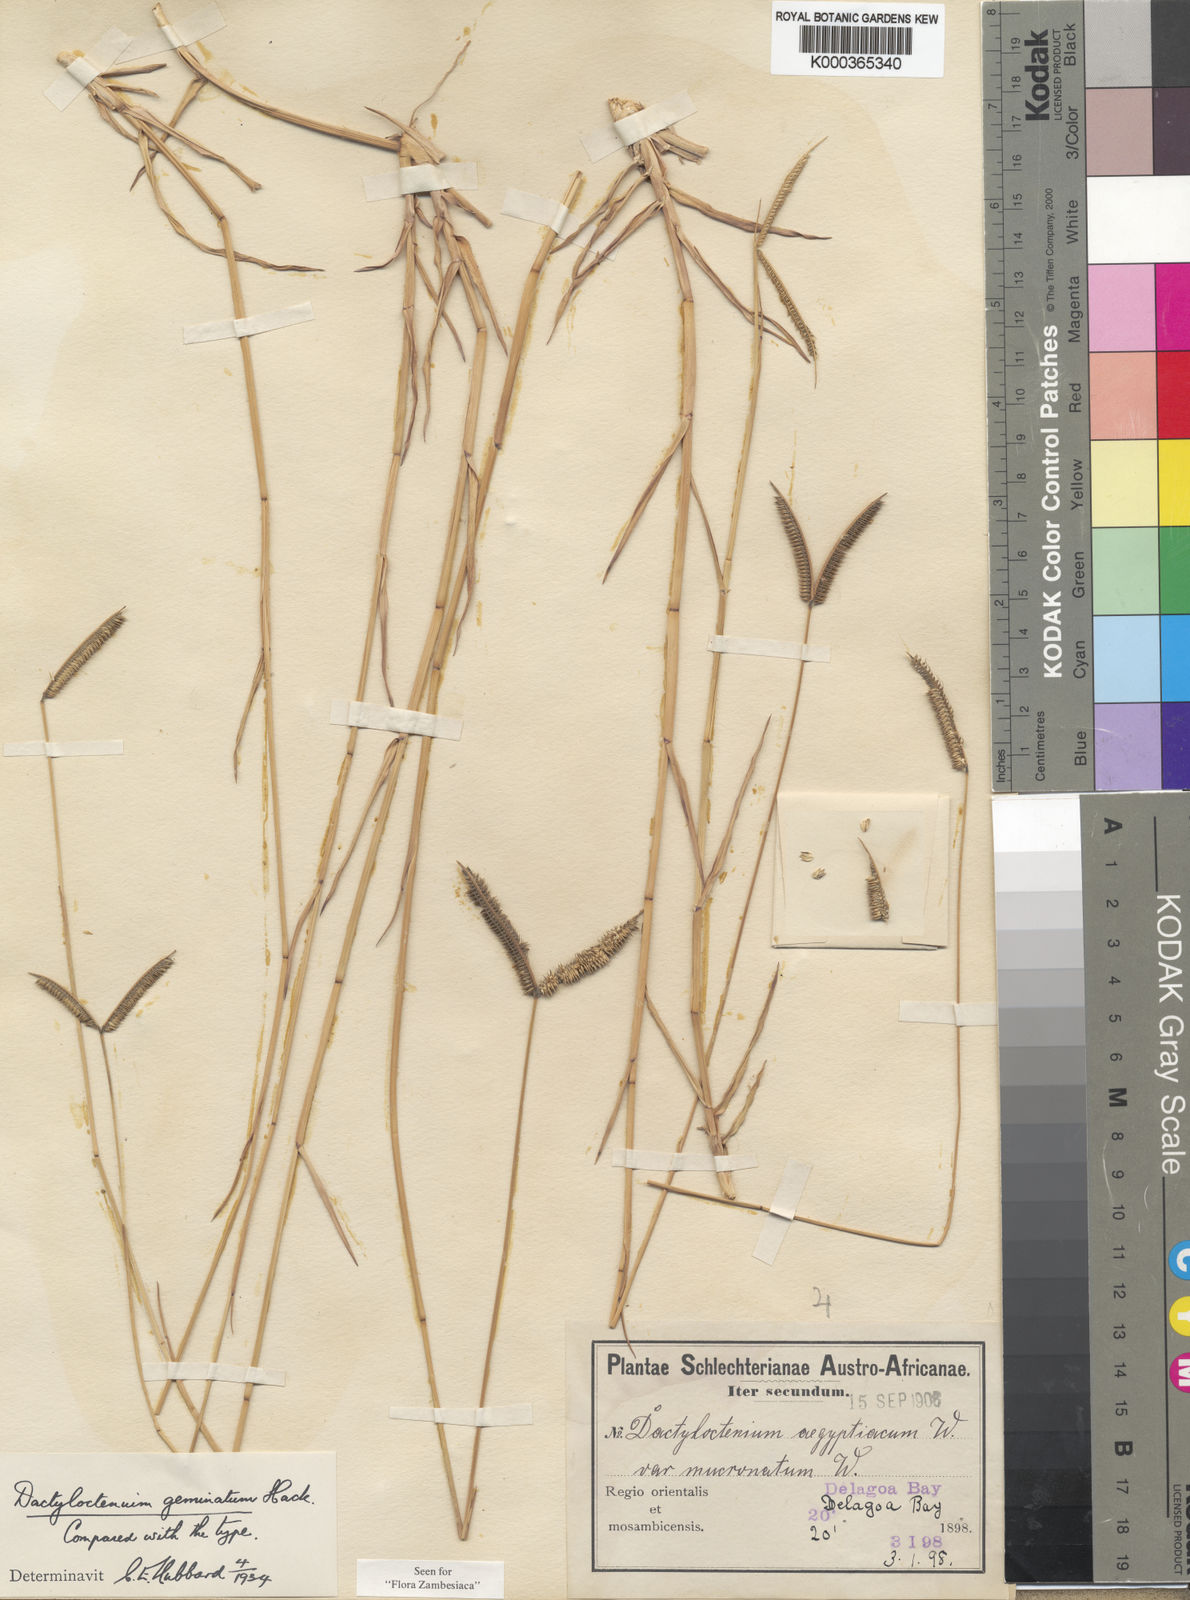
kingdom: Plantae
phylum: Tracheophyta
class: Liliopsida
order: Poales
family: Poaceae
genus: Dactyloctenium
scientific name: Dactyloctenium aegyptium
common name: Egyptian grass
